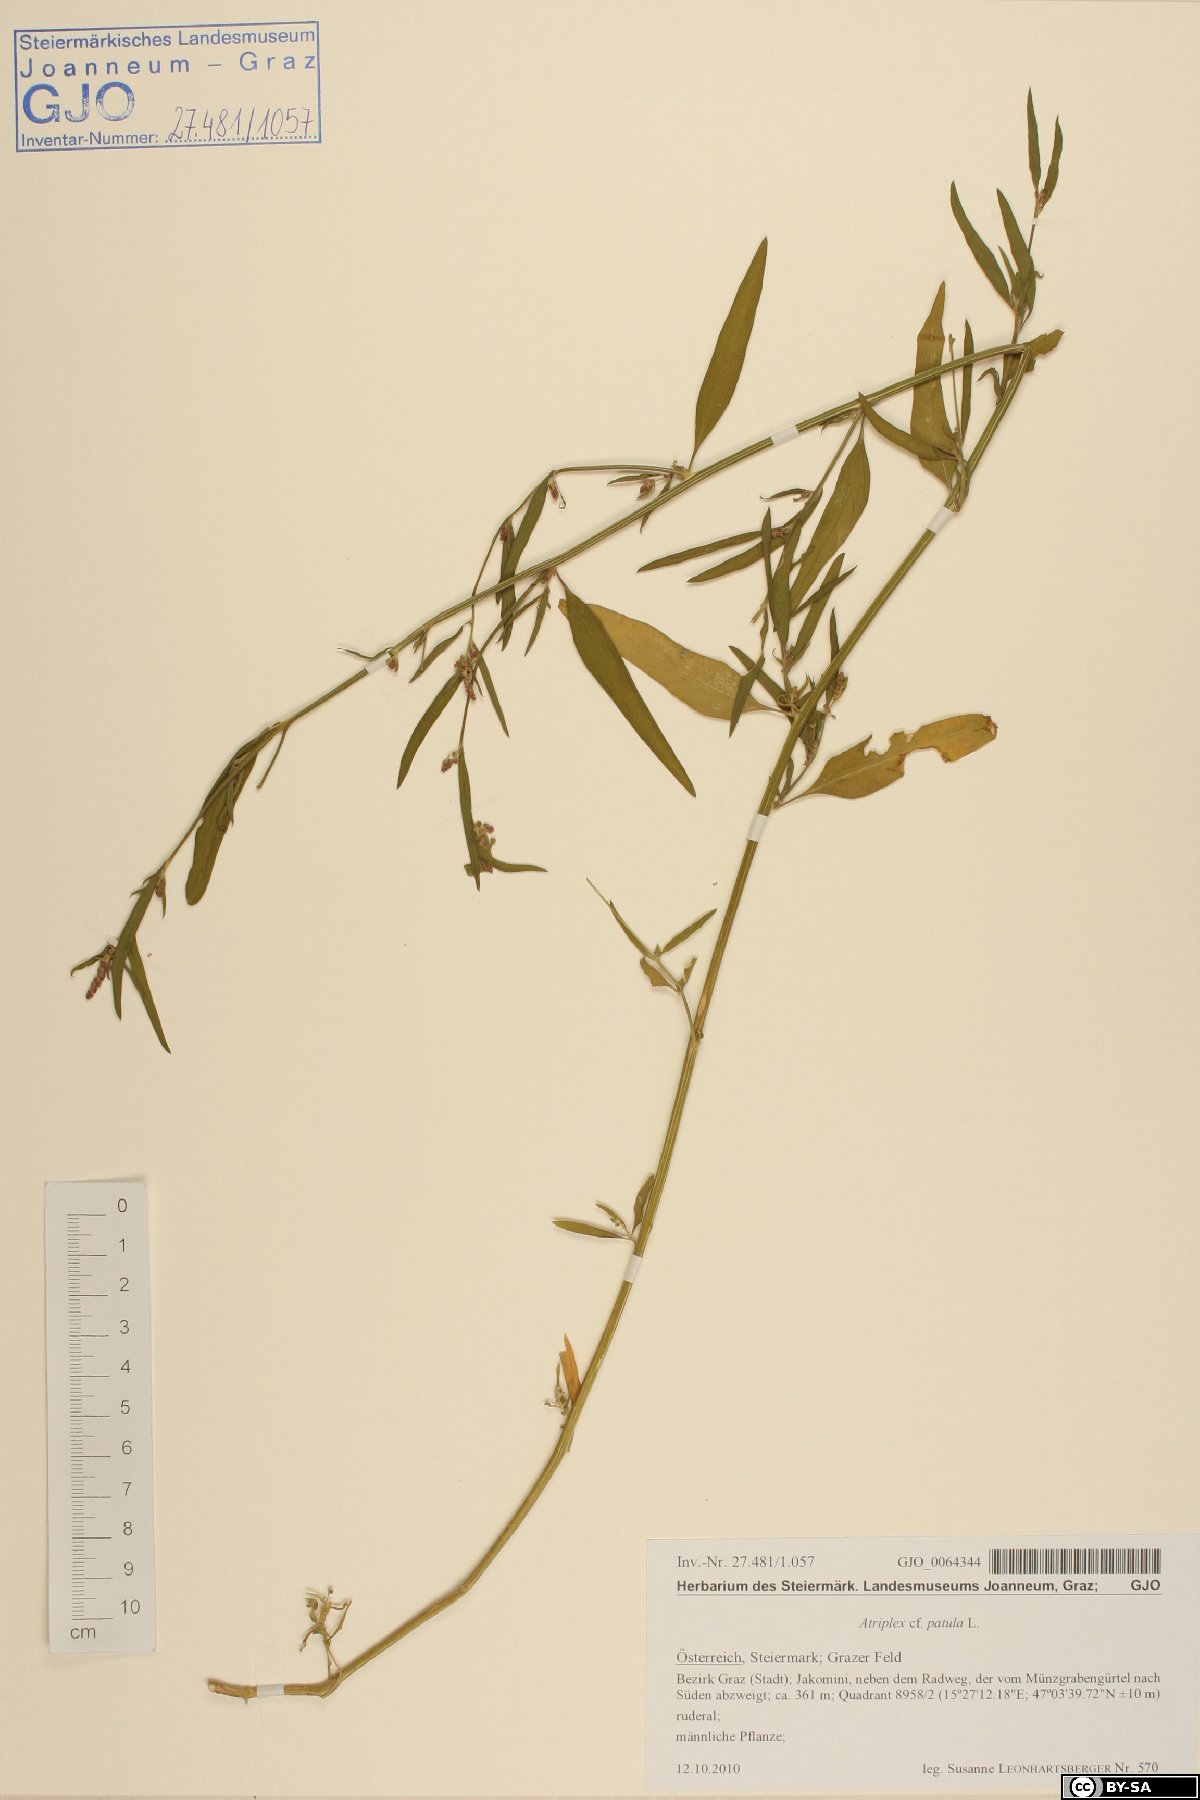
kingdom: Plantae
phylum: Tracheophyta
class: Magnoliopsida
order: Caryophyllales
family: Amaranthaceae
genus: Atriplex
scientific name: Atriplex patula
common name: Common orache
